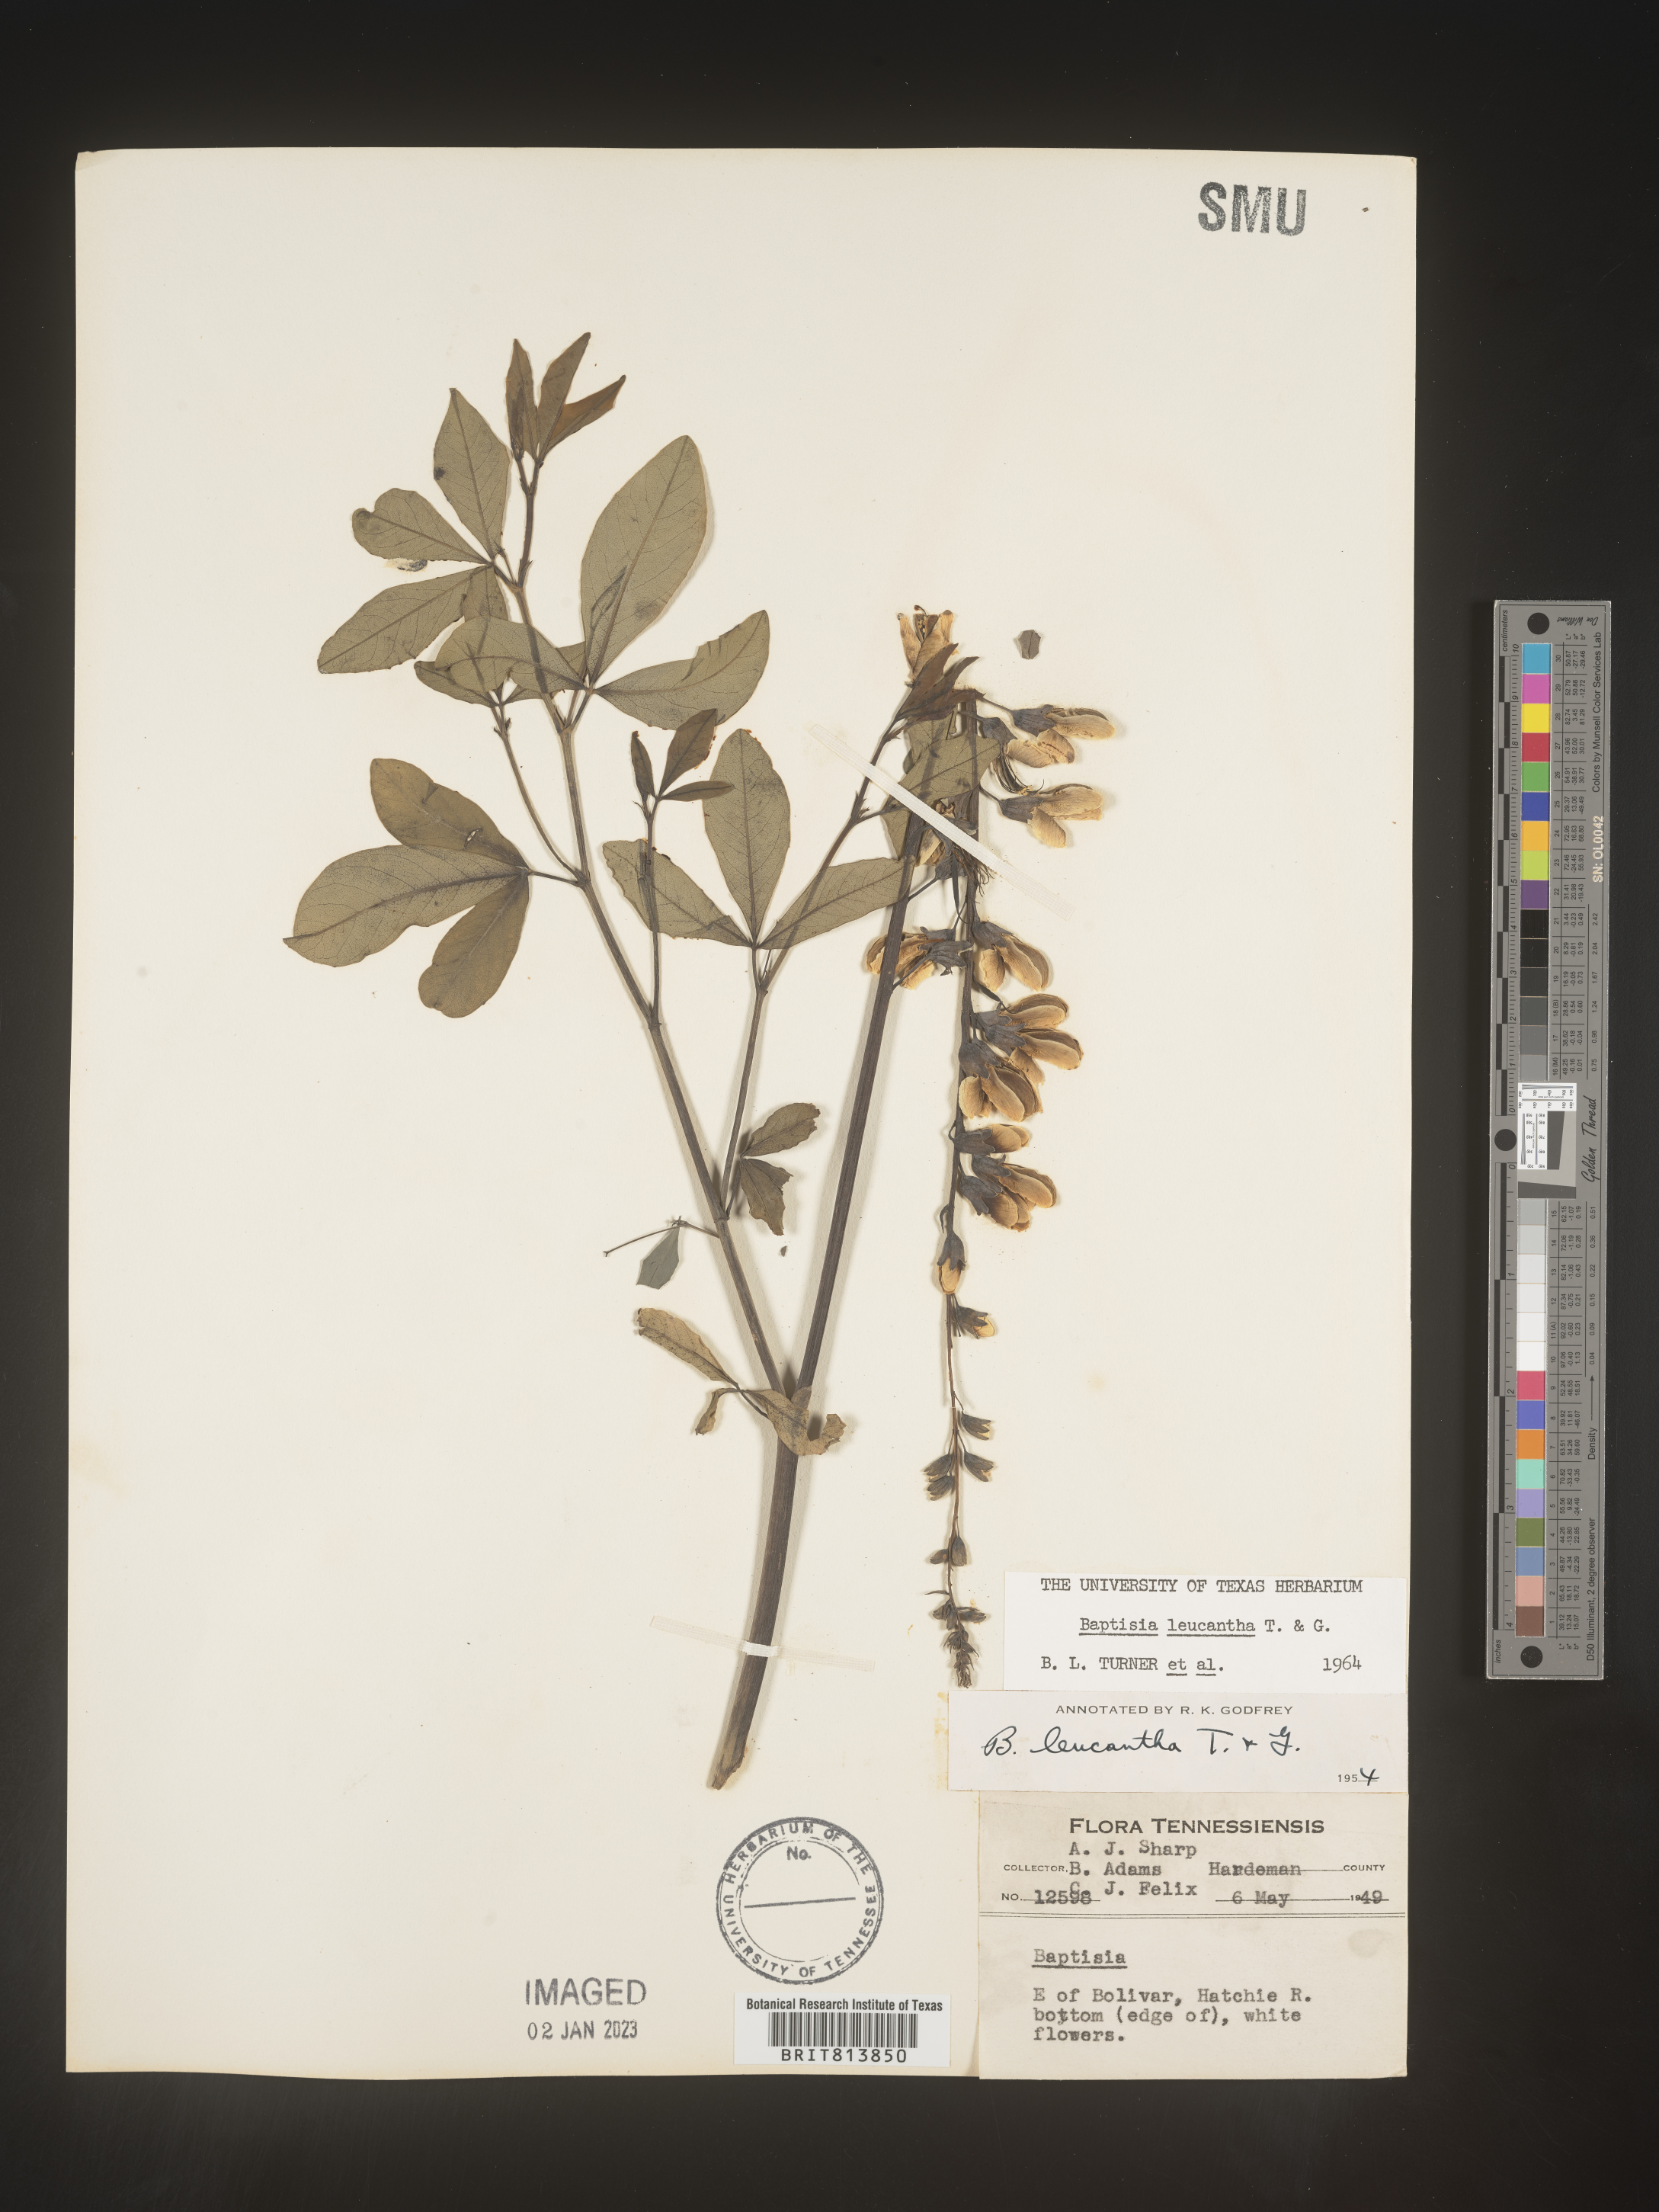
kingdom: Plantae
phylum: Tracheophyta
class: Magnoliopsida
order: Fabales
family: Fabaceae
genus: Baptisia
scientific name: Baptisia alba
